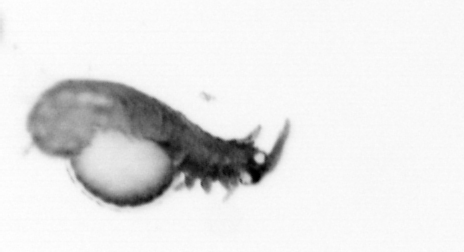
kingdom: Animalia
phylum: Annelida
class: Polychaeta
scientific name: Polychaeta
